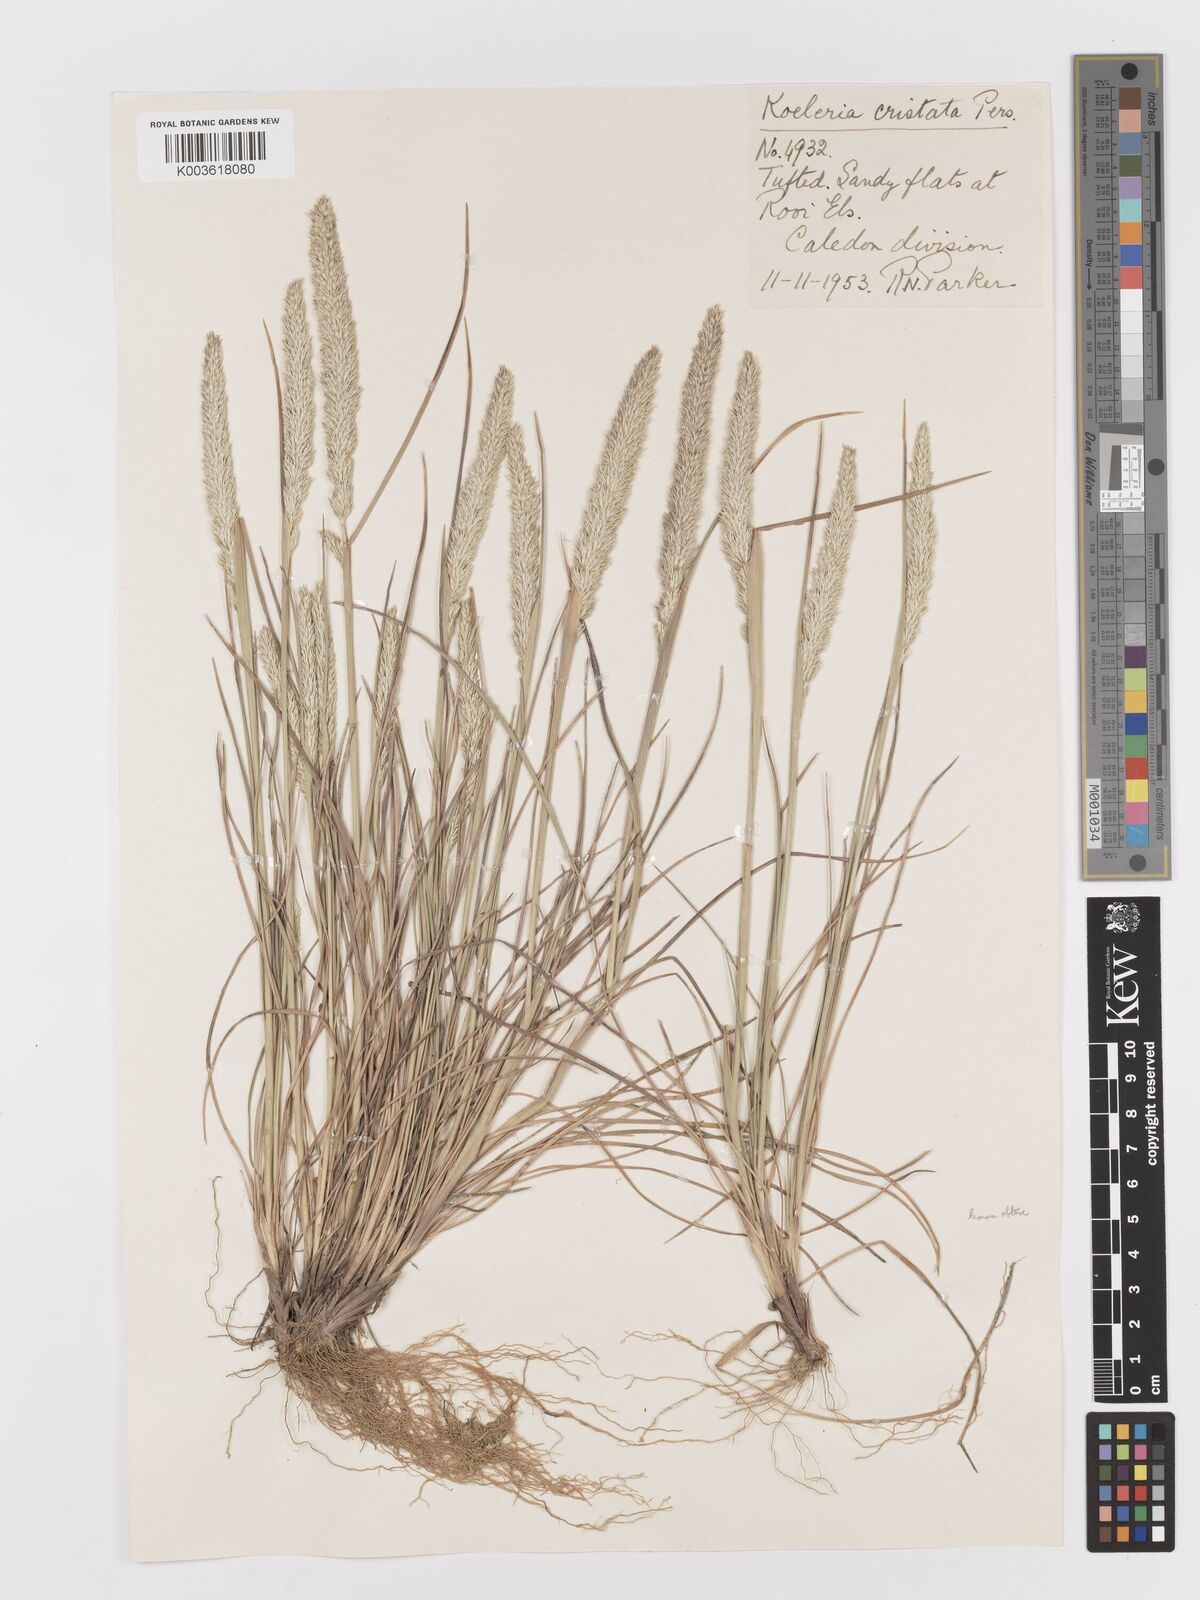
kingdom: Plantae
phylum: Tracheophyta
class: Liliopsida
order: Poales
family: Poaceae
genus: Koeleria
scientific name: Koeleria capensis
